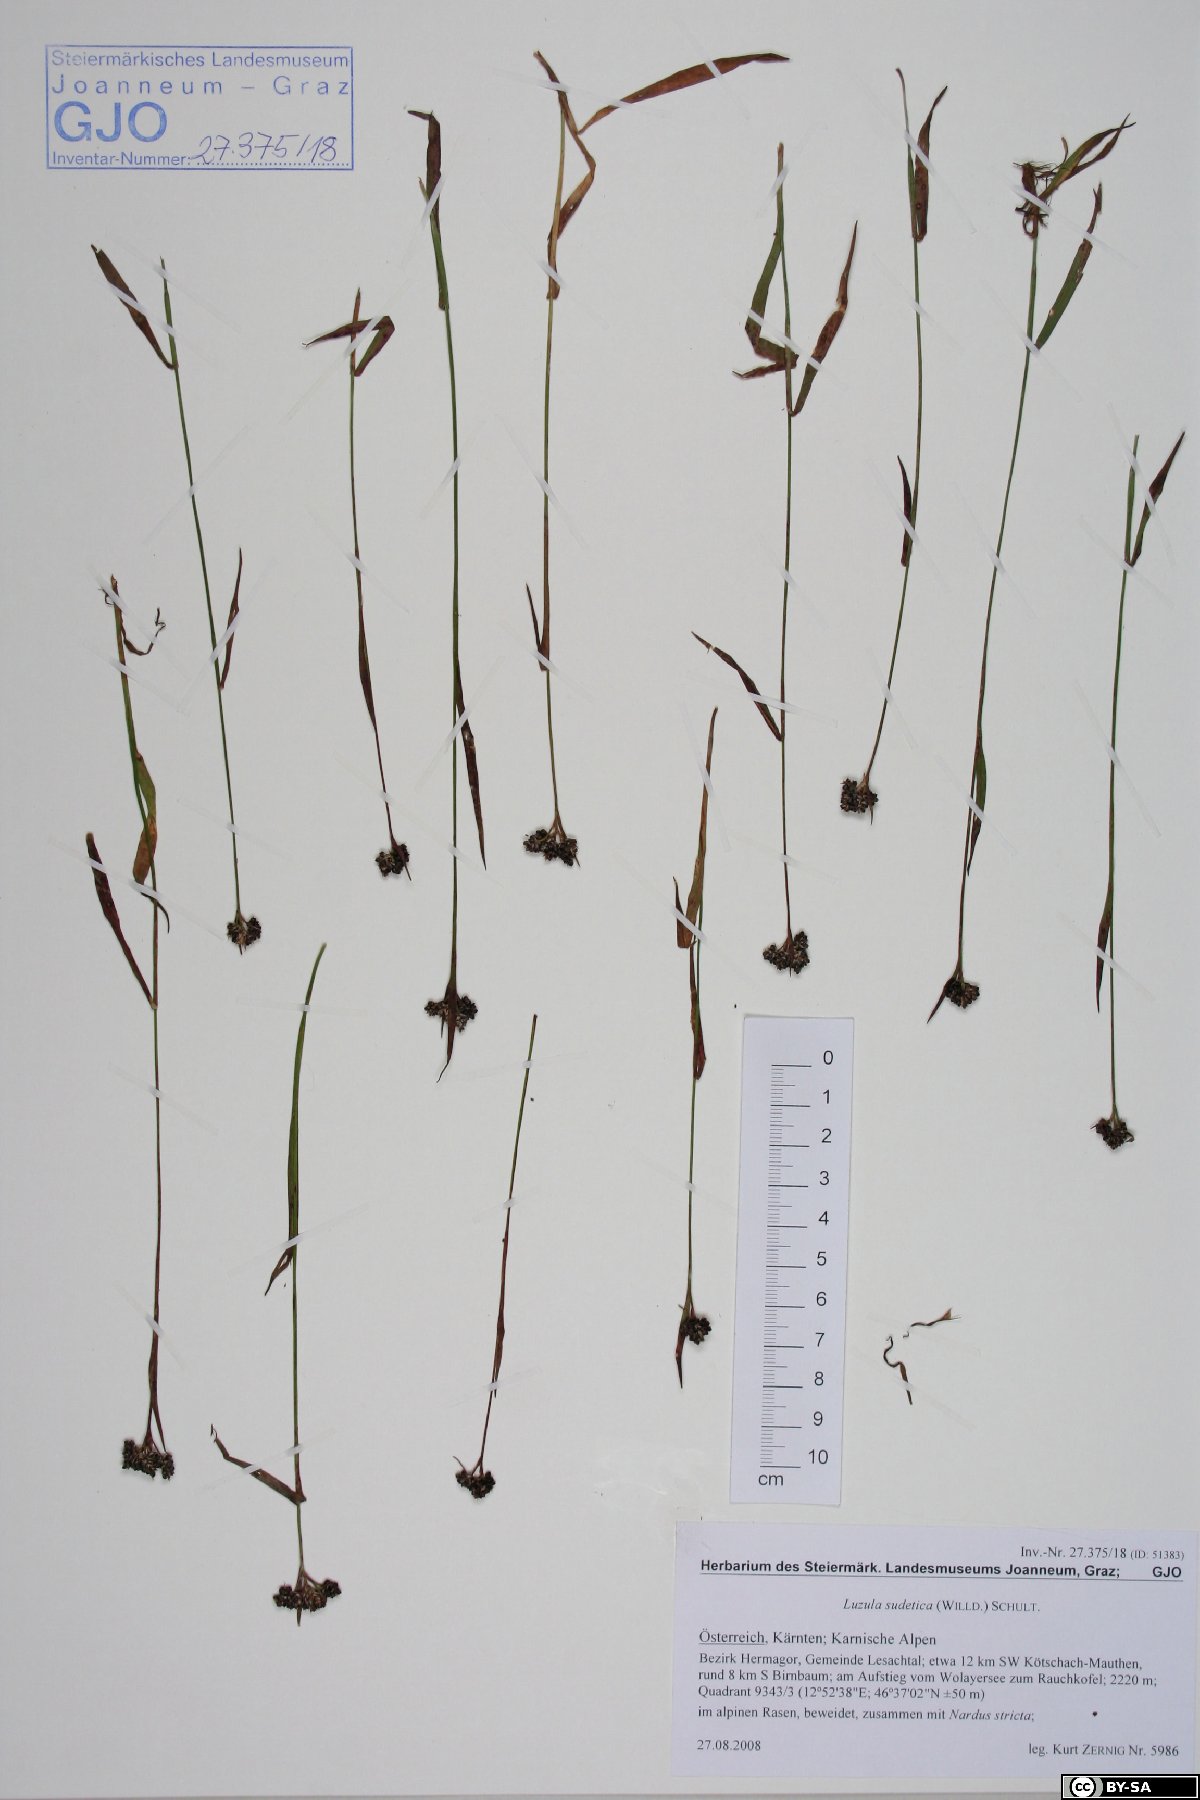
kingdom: Plantae
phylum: Tracheophyta
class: Liliopsida
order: Poales
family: Juncaceae
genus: Luzula
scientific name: Luzula sudetica
